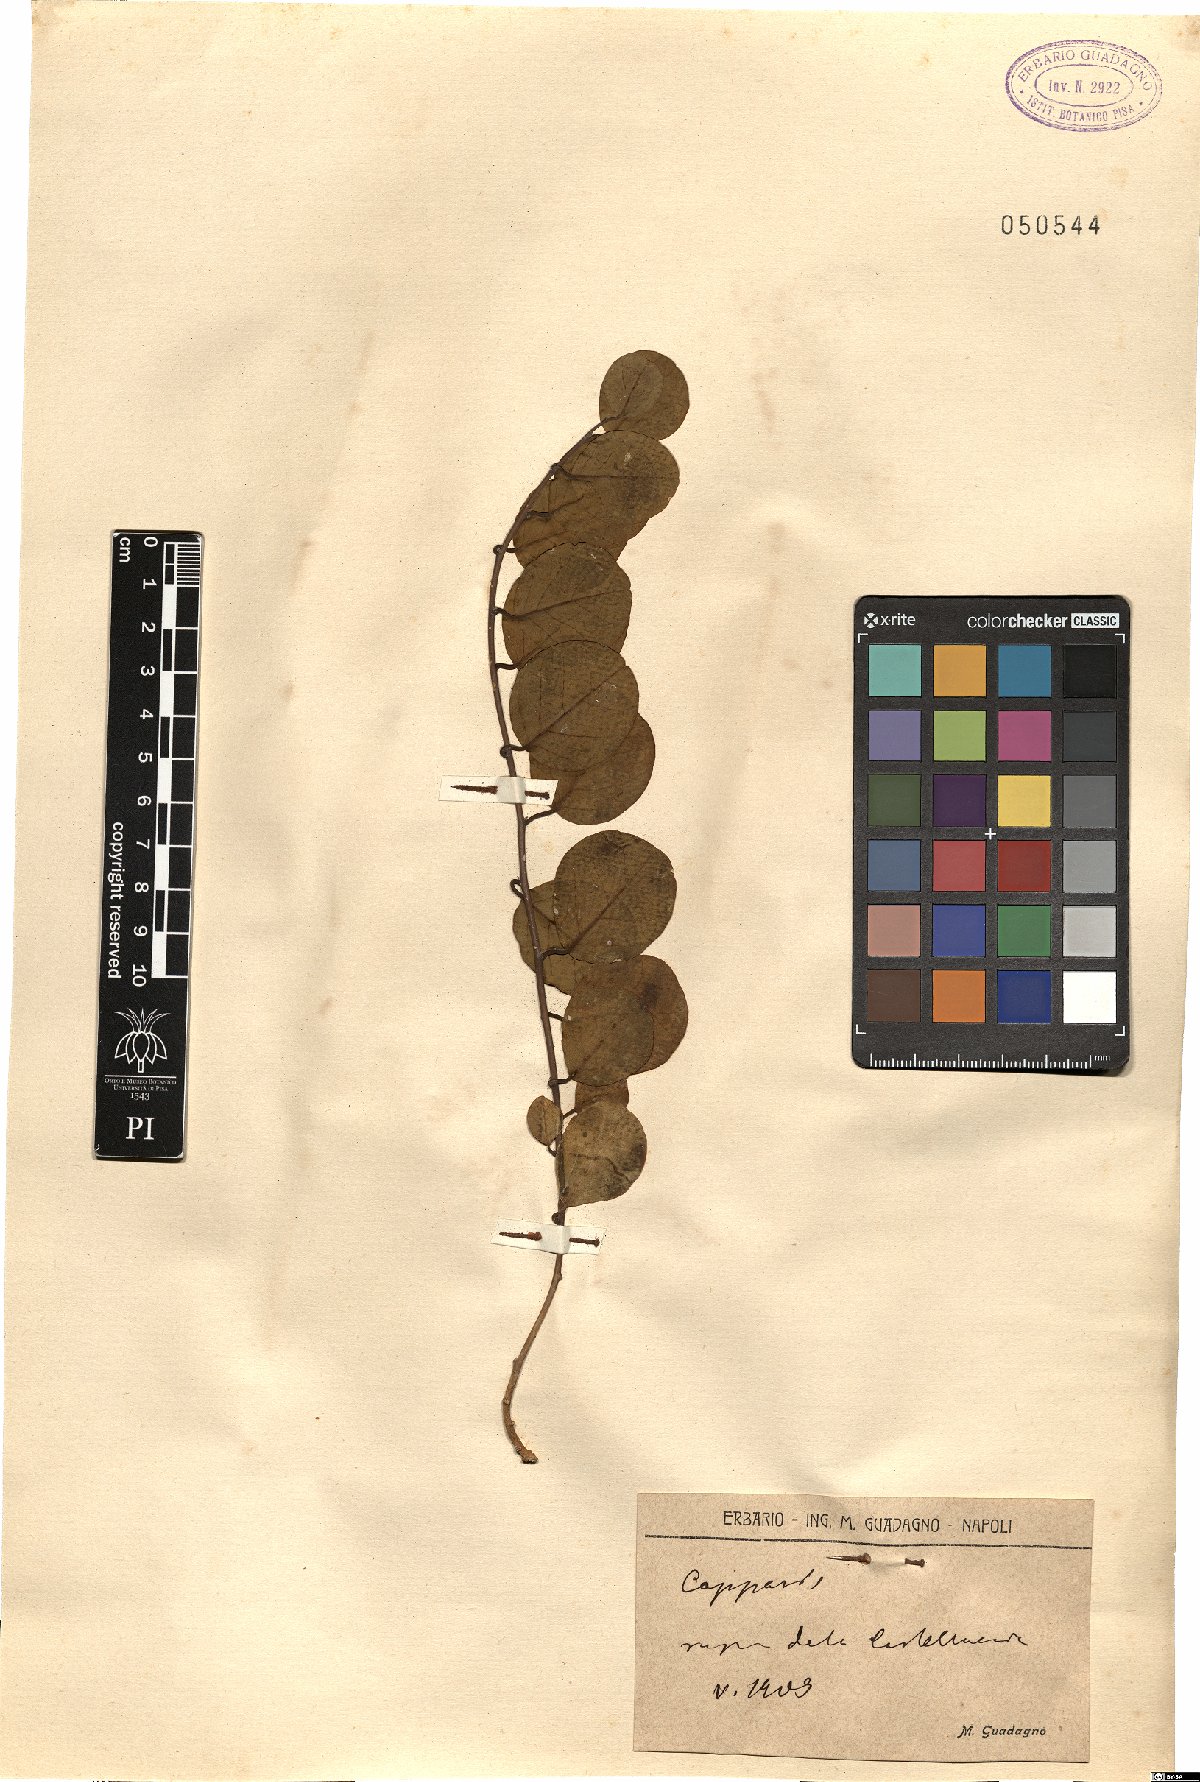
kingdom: Plantae
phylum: Tracheophyta
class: Magnoliopsida
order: Brassicales
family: Capparaceae
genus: Capparis
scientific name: Capparis
